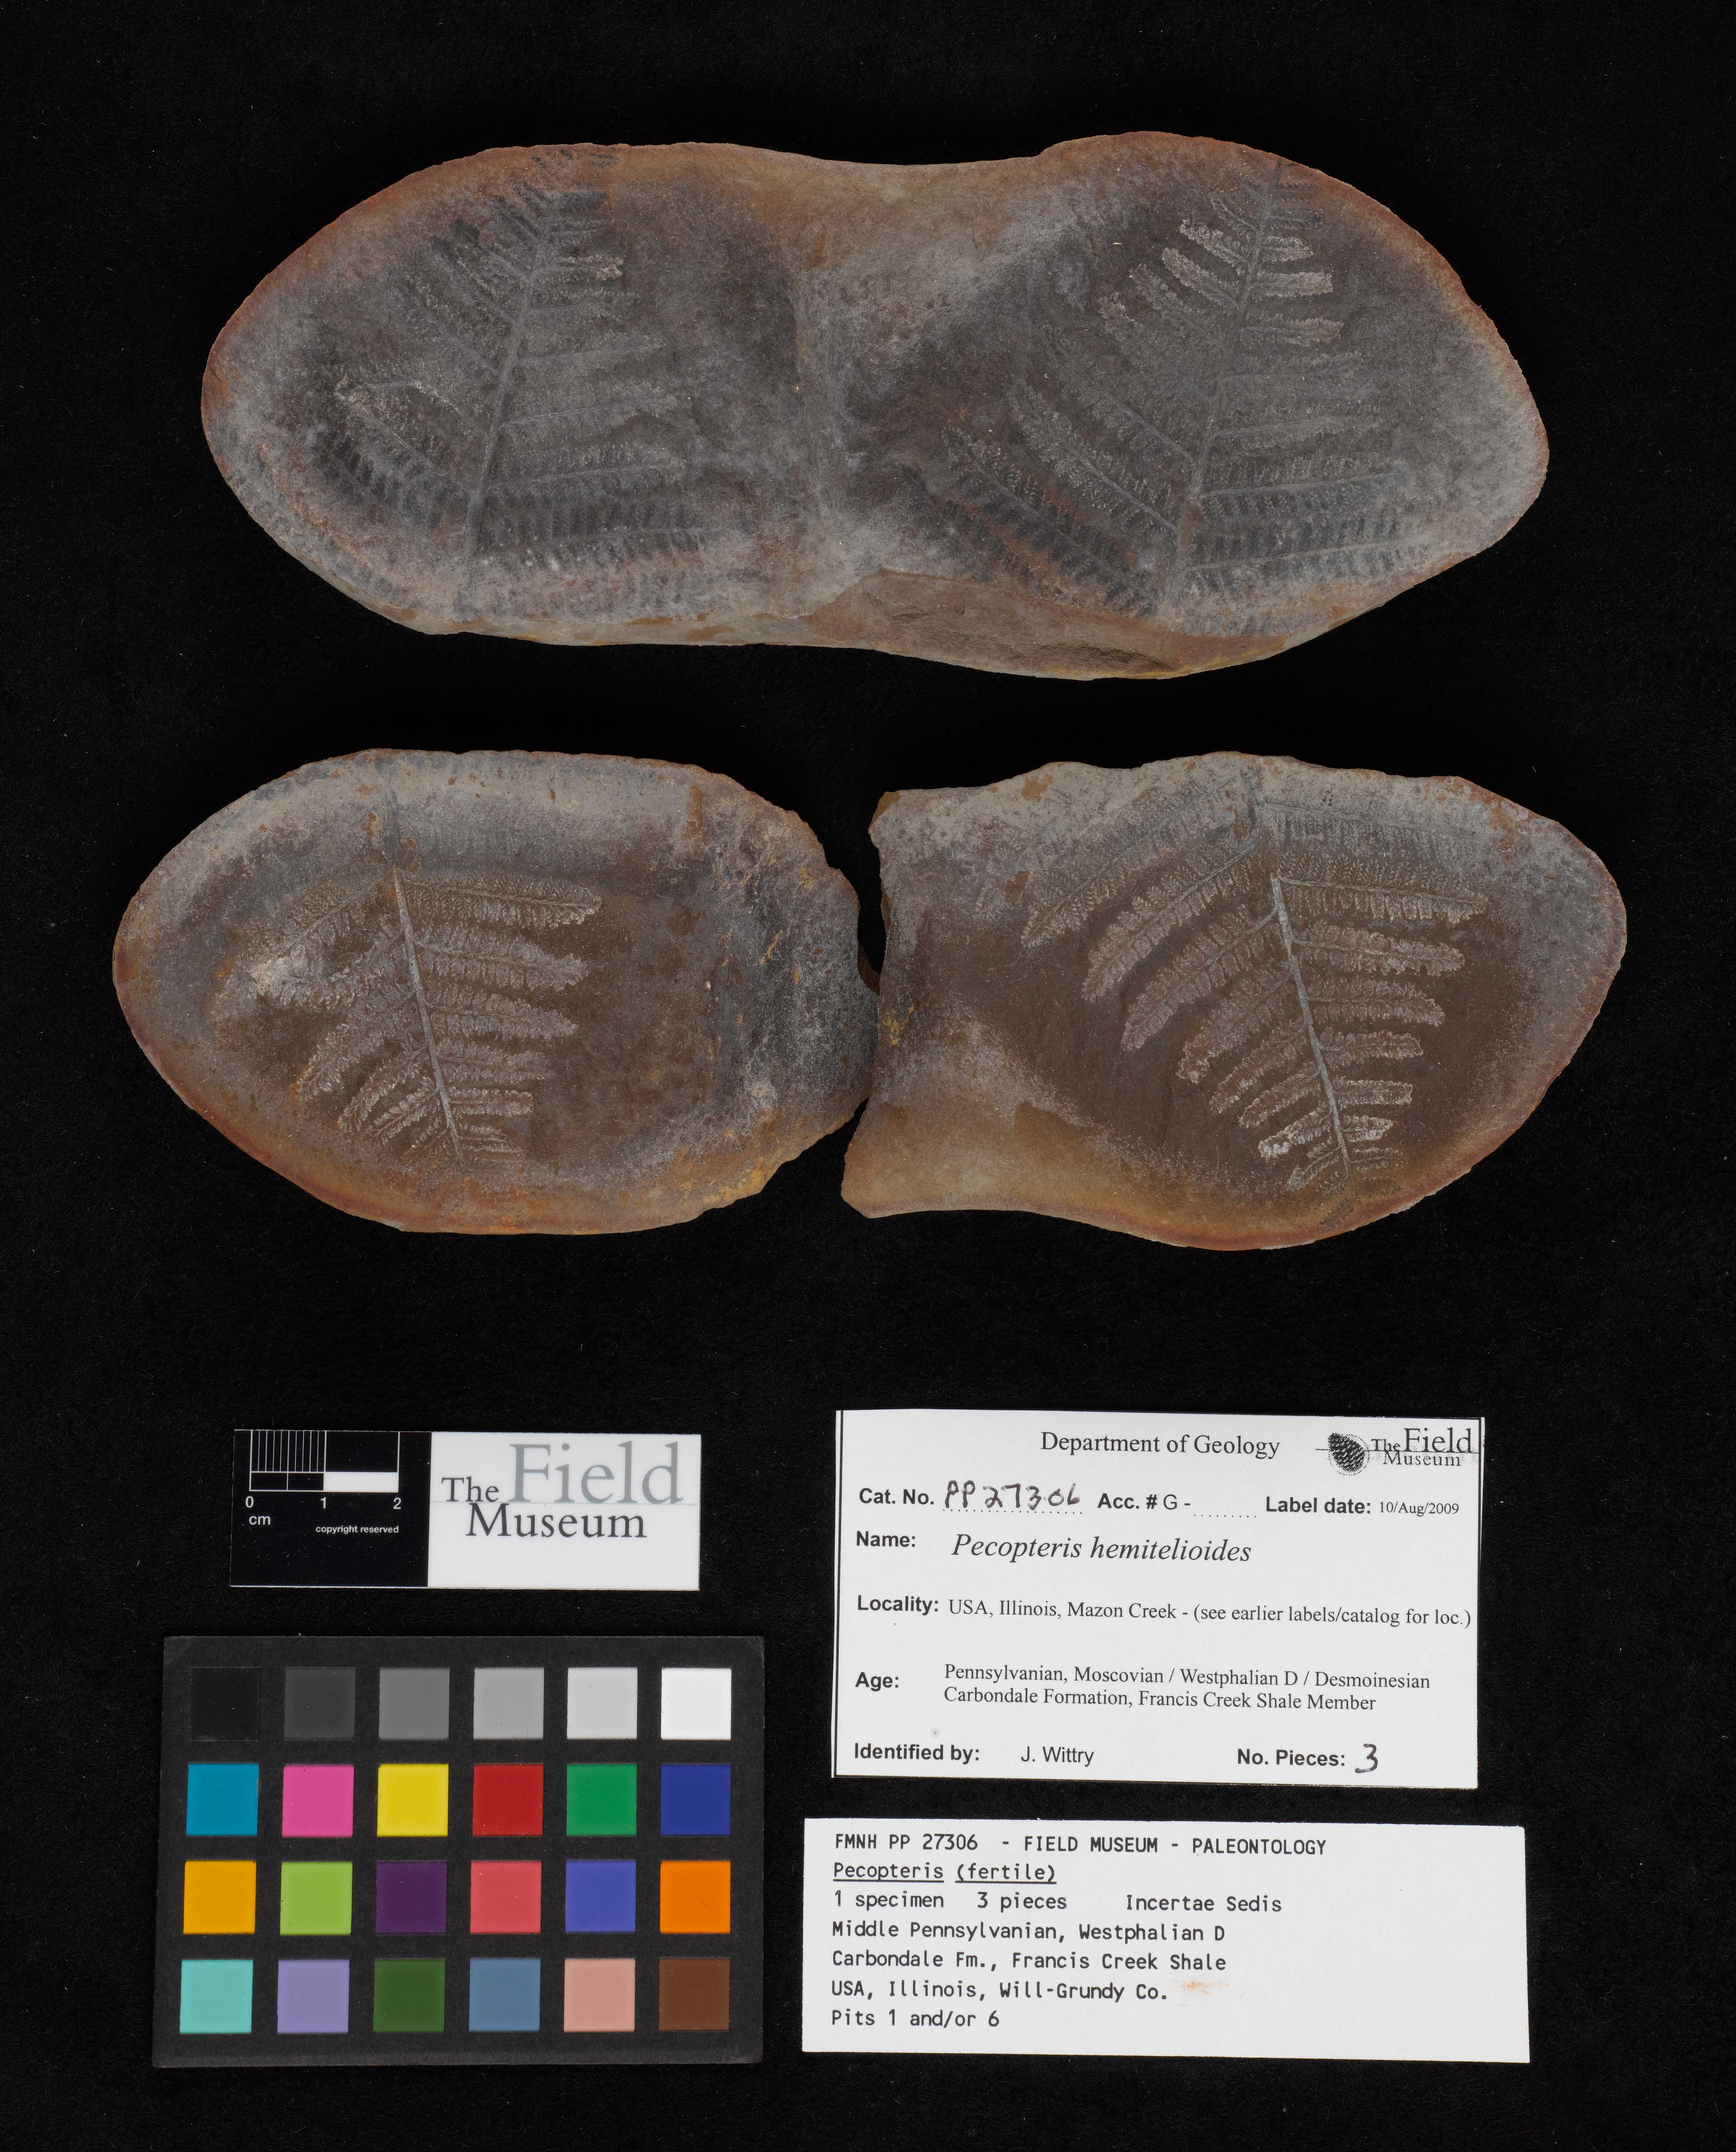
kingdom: Plantae
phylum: Tracheophyta
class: Polypodiopsida
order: Marattiales
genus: Cyathocarpus
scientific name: Cyathocarpus
